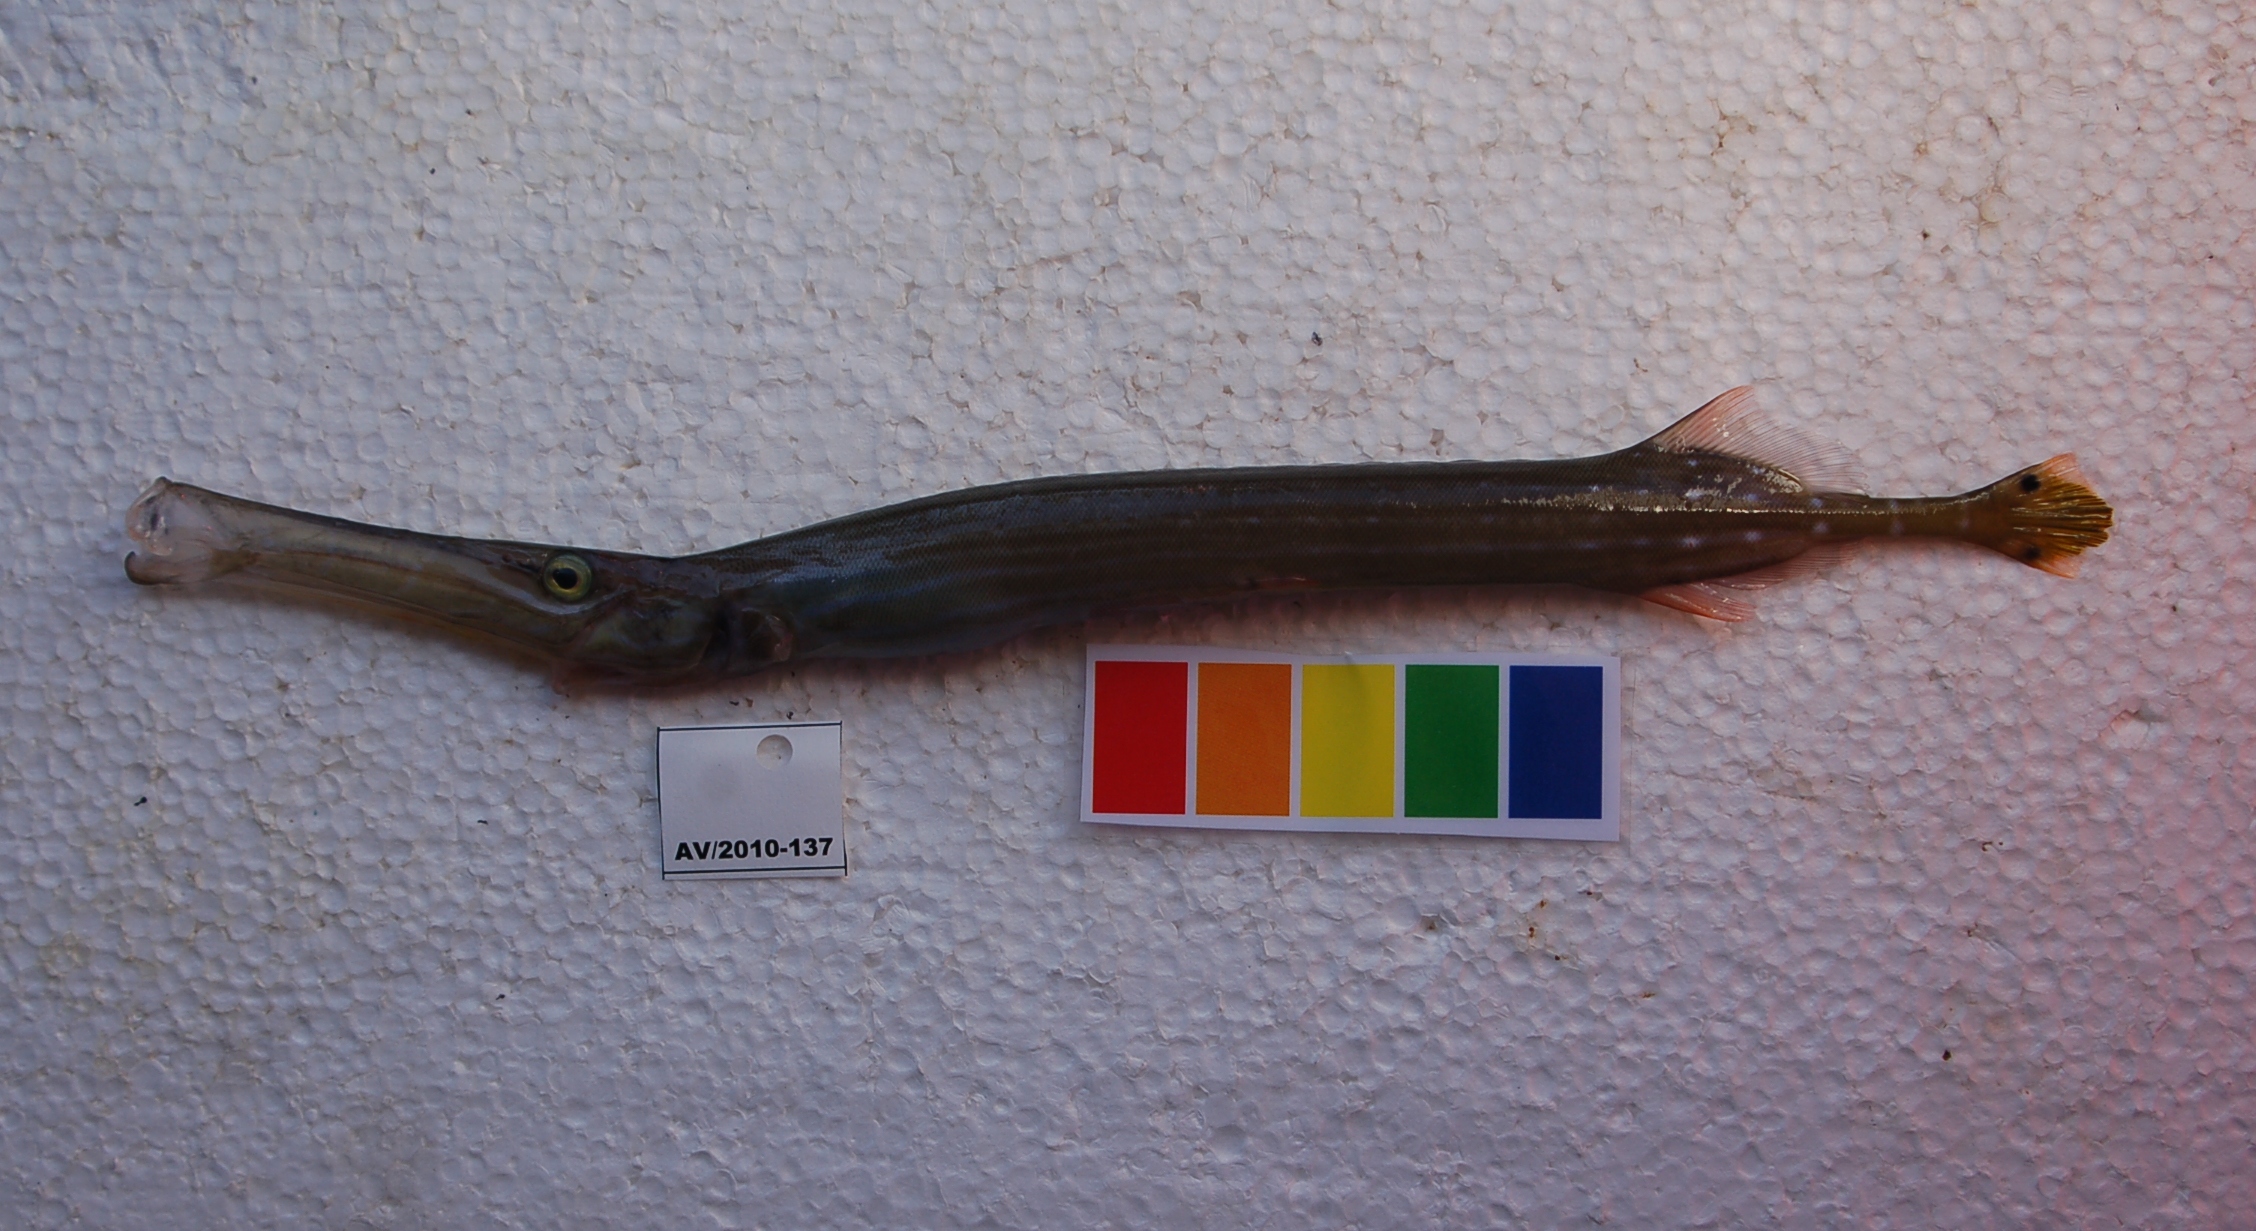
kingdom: Animalia
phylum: Chordata
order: Syngnathiformes
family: Aulostomidae
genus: Aulostomus
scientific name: Aulostomus chinensis
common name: Chinese trumpetfish
